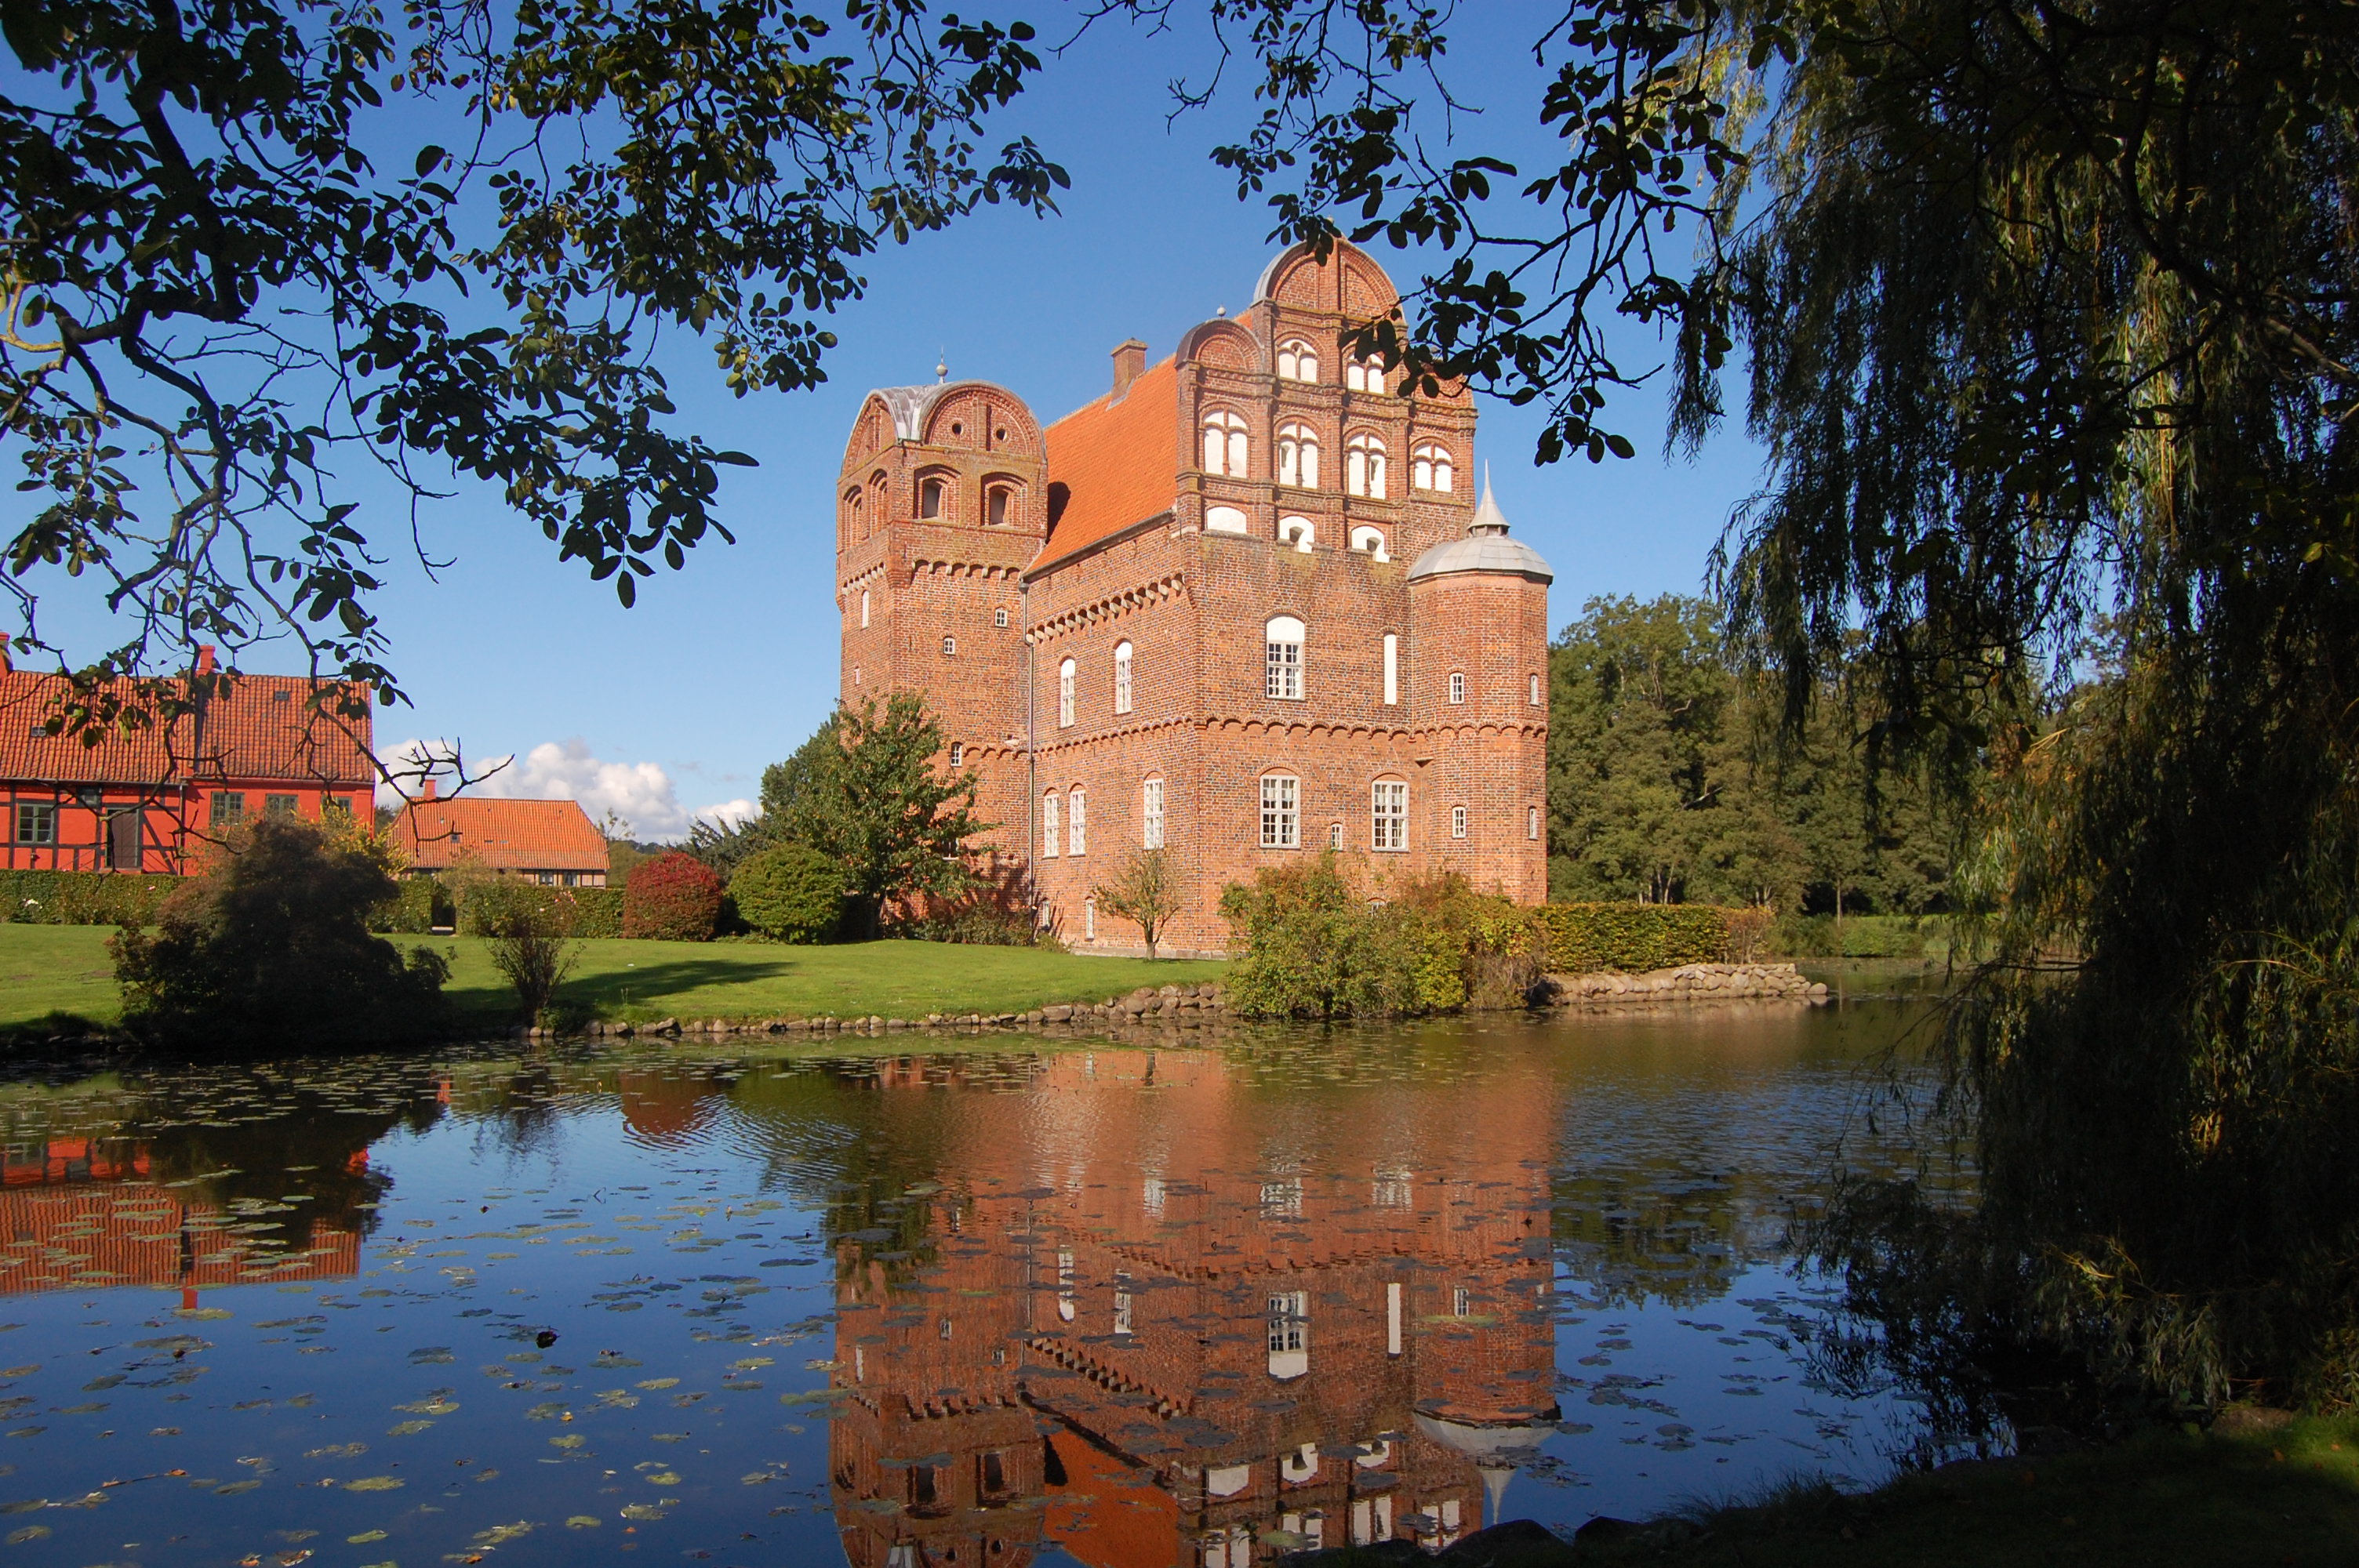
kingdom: Plantae
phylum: Tracheophyta
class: Magnoliopsida
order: Asterales
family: Asteraceae
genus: Arctium
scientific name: Arctium lappa
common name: Greater burdock
